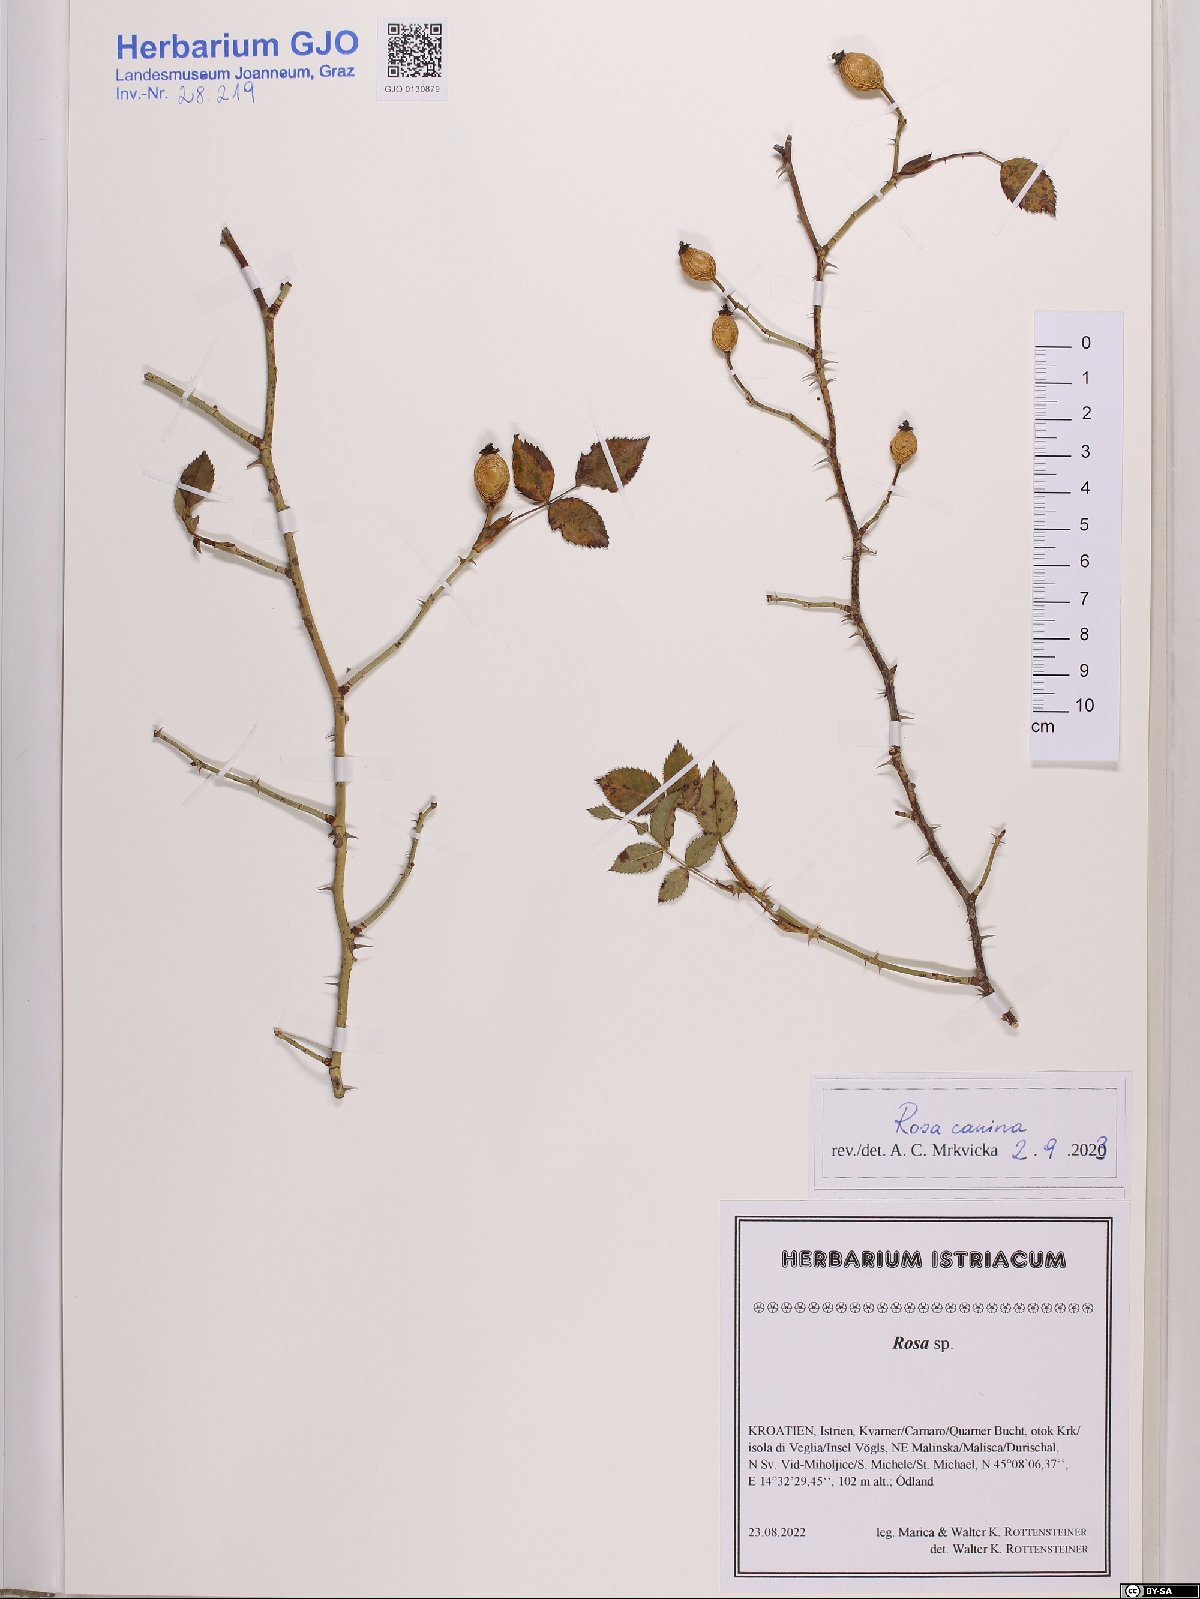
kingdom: Plantae
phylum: Tracheophyta
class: Magnoliopsida
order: Rosales
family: Rosaceae
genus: Rosa
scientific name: Rosa canina
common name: Dog rose
